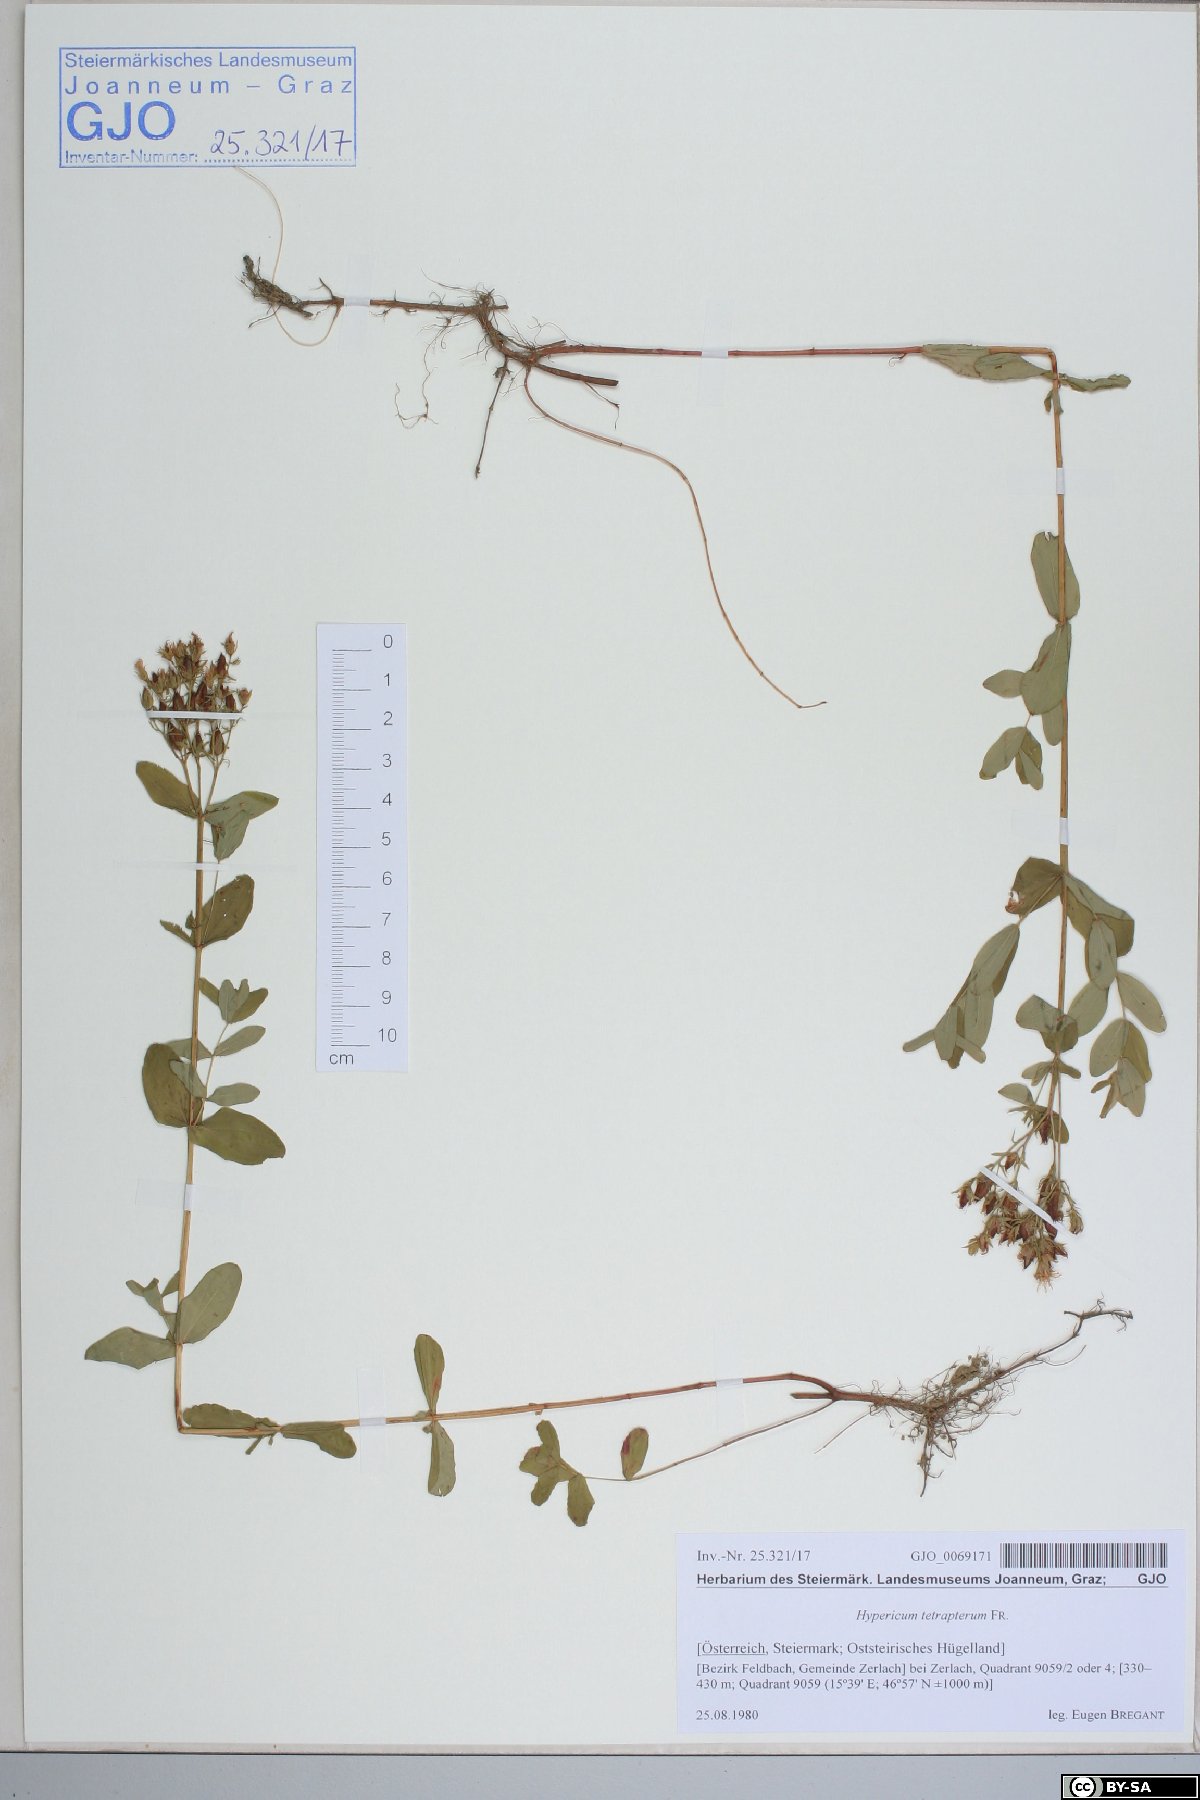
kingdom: Plantae
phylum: Tracheophyta
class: Magnoliopsida
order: Malpighiales
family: Hypericaceae
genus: Hypericum
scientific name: Hypericum tetrapterum
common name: Square-stalked st. john's-wort
